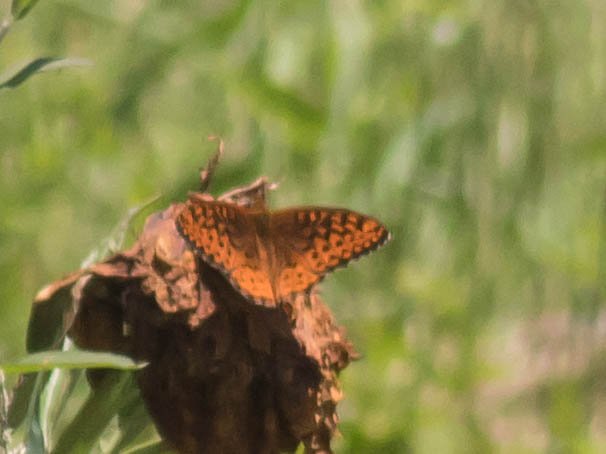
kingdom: Animalia
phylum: Arthropoda
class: Insecta
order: Lepidoptera
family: Nymphalidae
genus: Clossiana
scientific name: Clossiana toddi
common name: Meadow Fritillary
